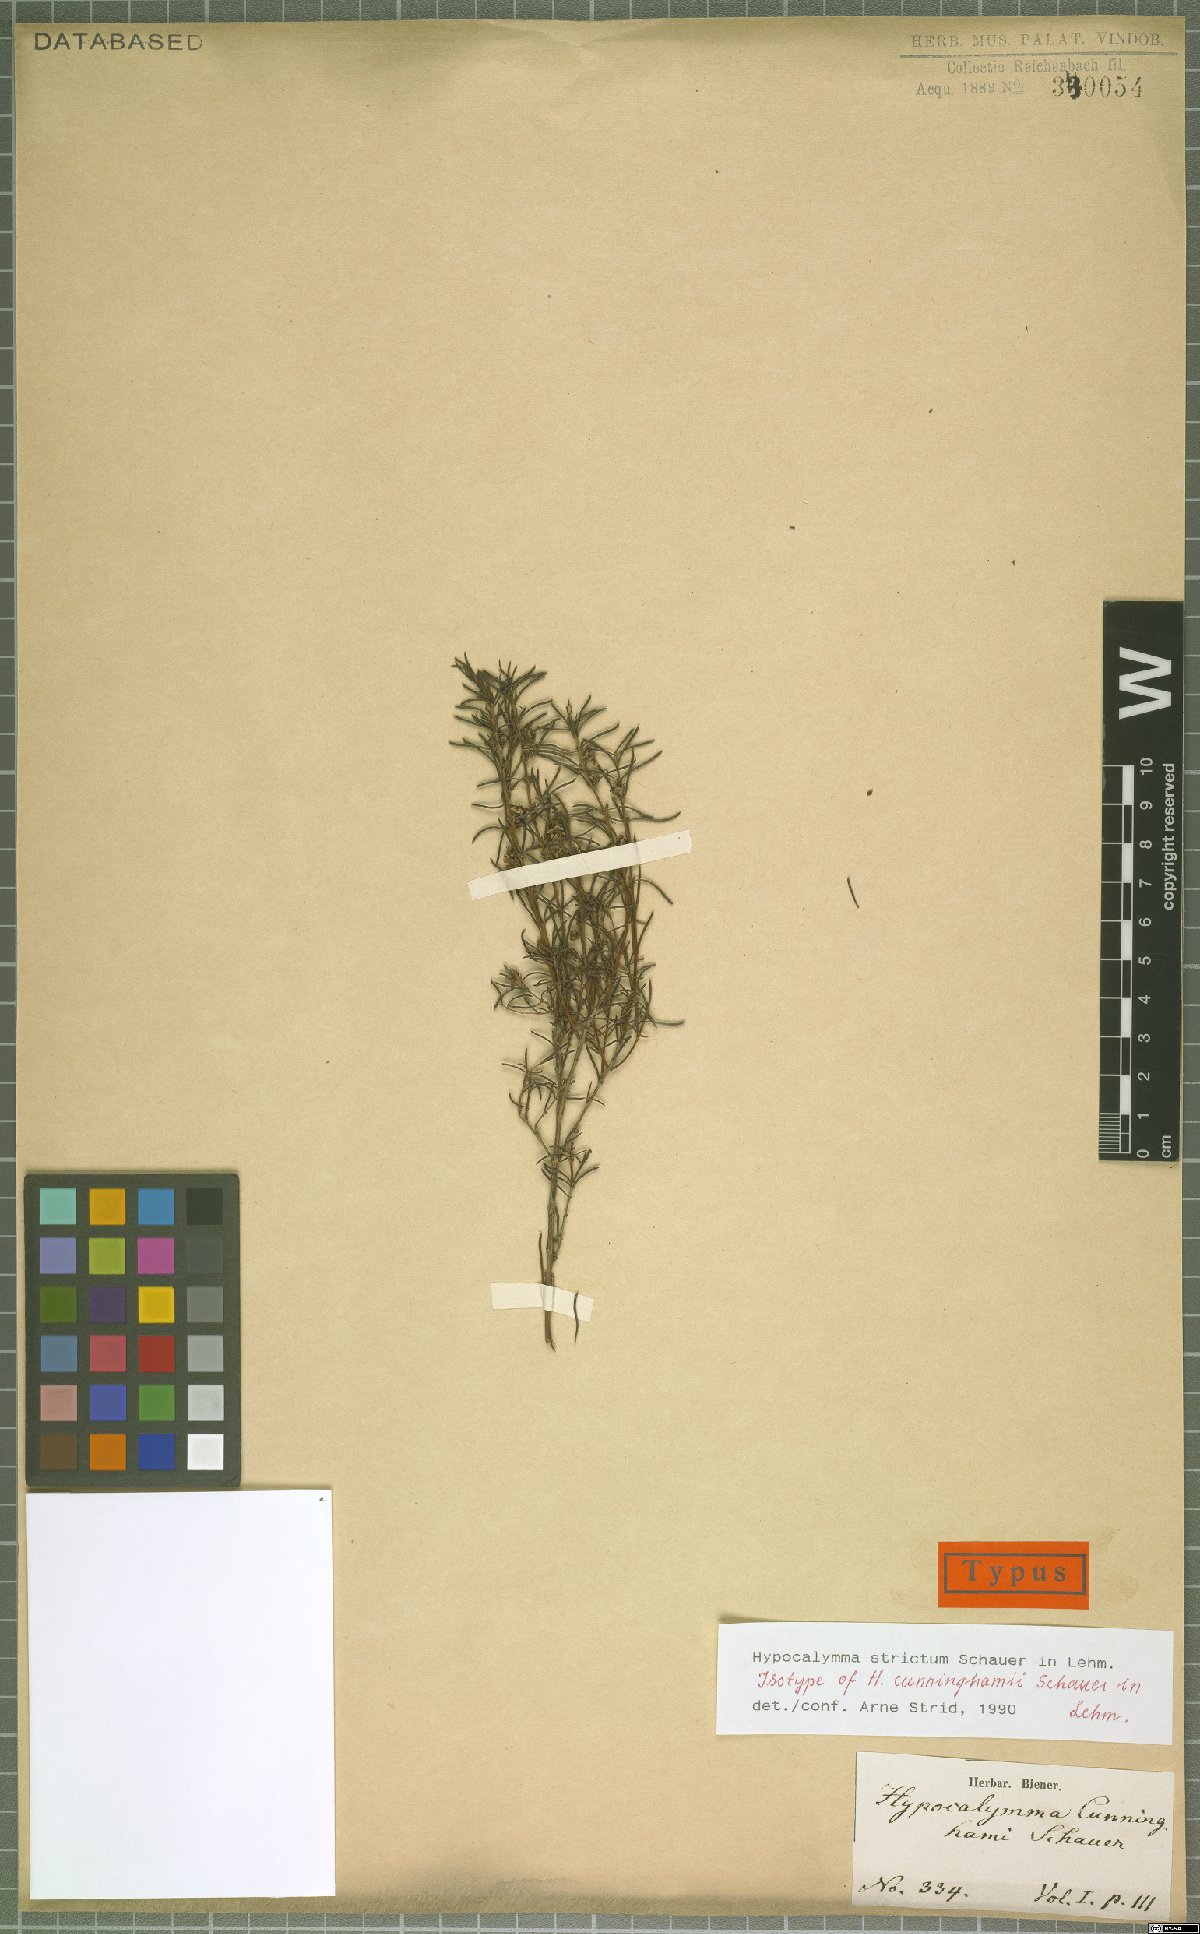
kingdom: Plantae
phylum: Tracheophyta
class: Magnoliopsida
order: Myrtales
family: Myrtaceae
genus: Hypocalymma
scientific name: Hypocalymma strictum
